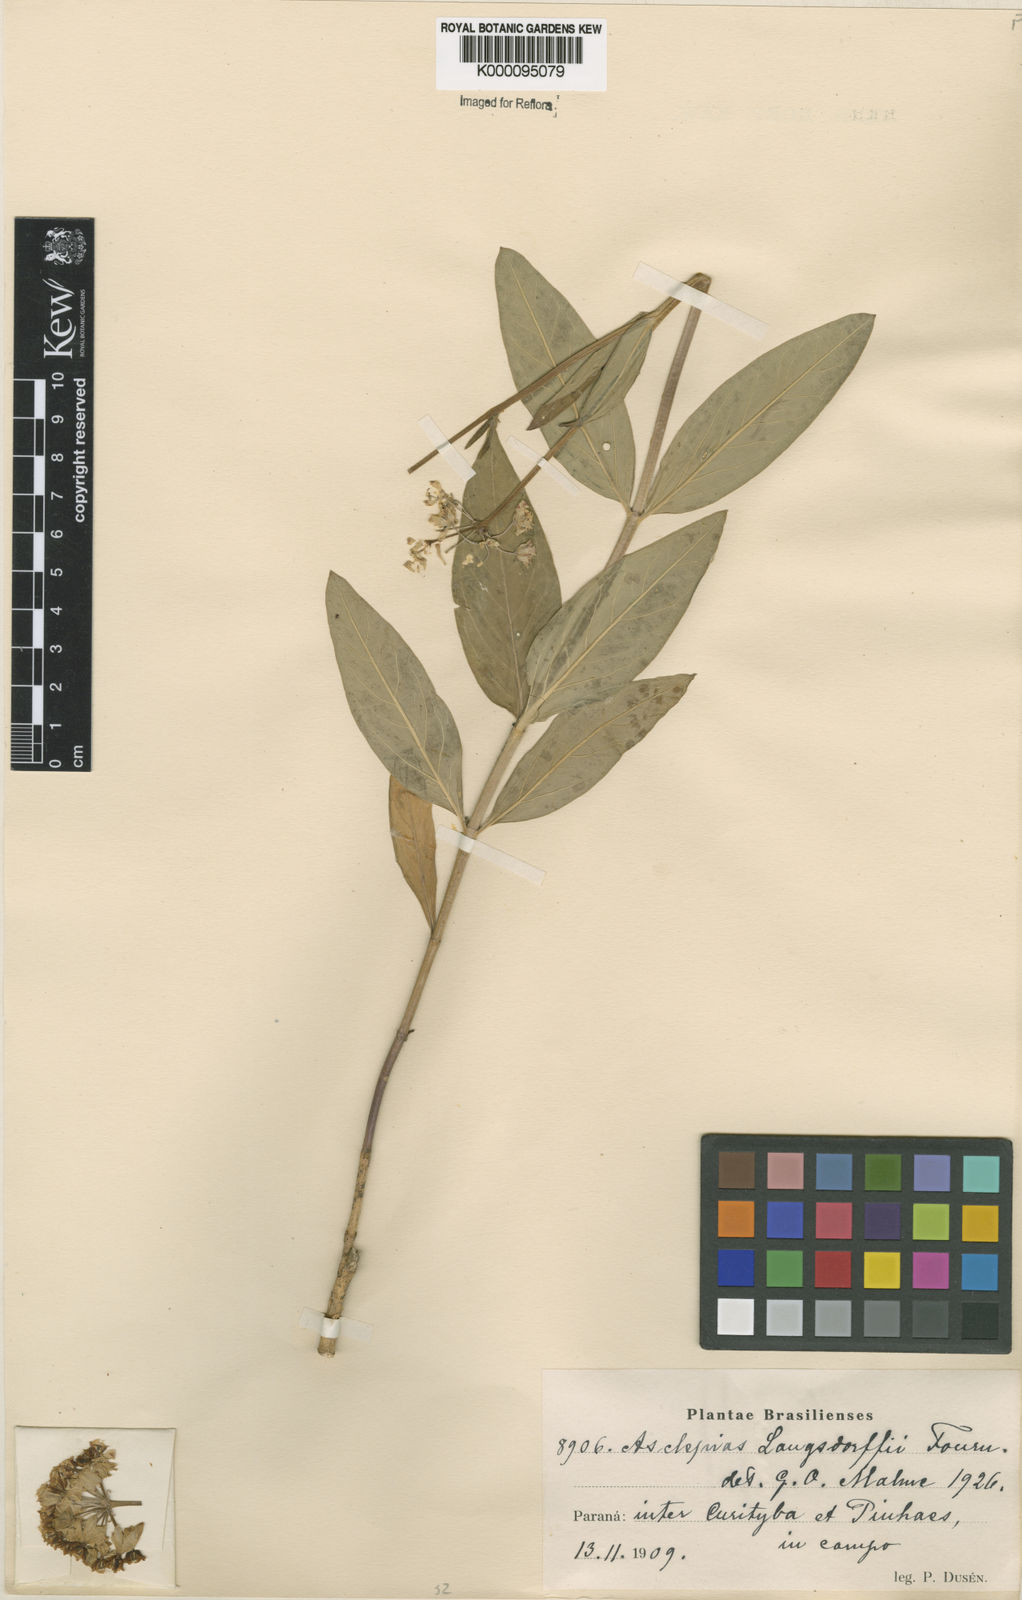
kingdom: Plantae
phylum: Tracheophyta
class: Magnoliopsida
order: Gentianales
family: Apocynaceae
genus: Asclepias
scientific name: Asclepias mellodora
